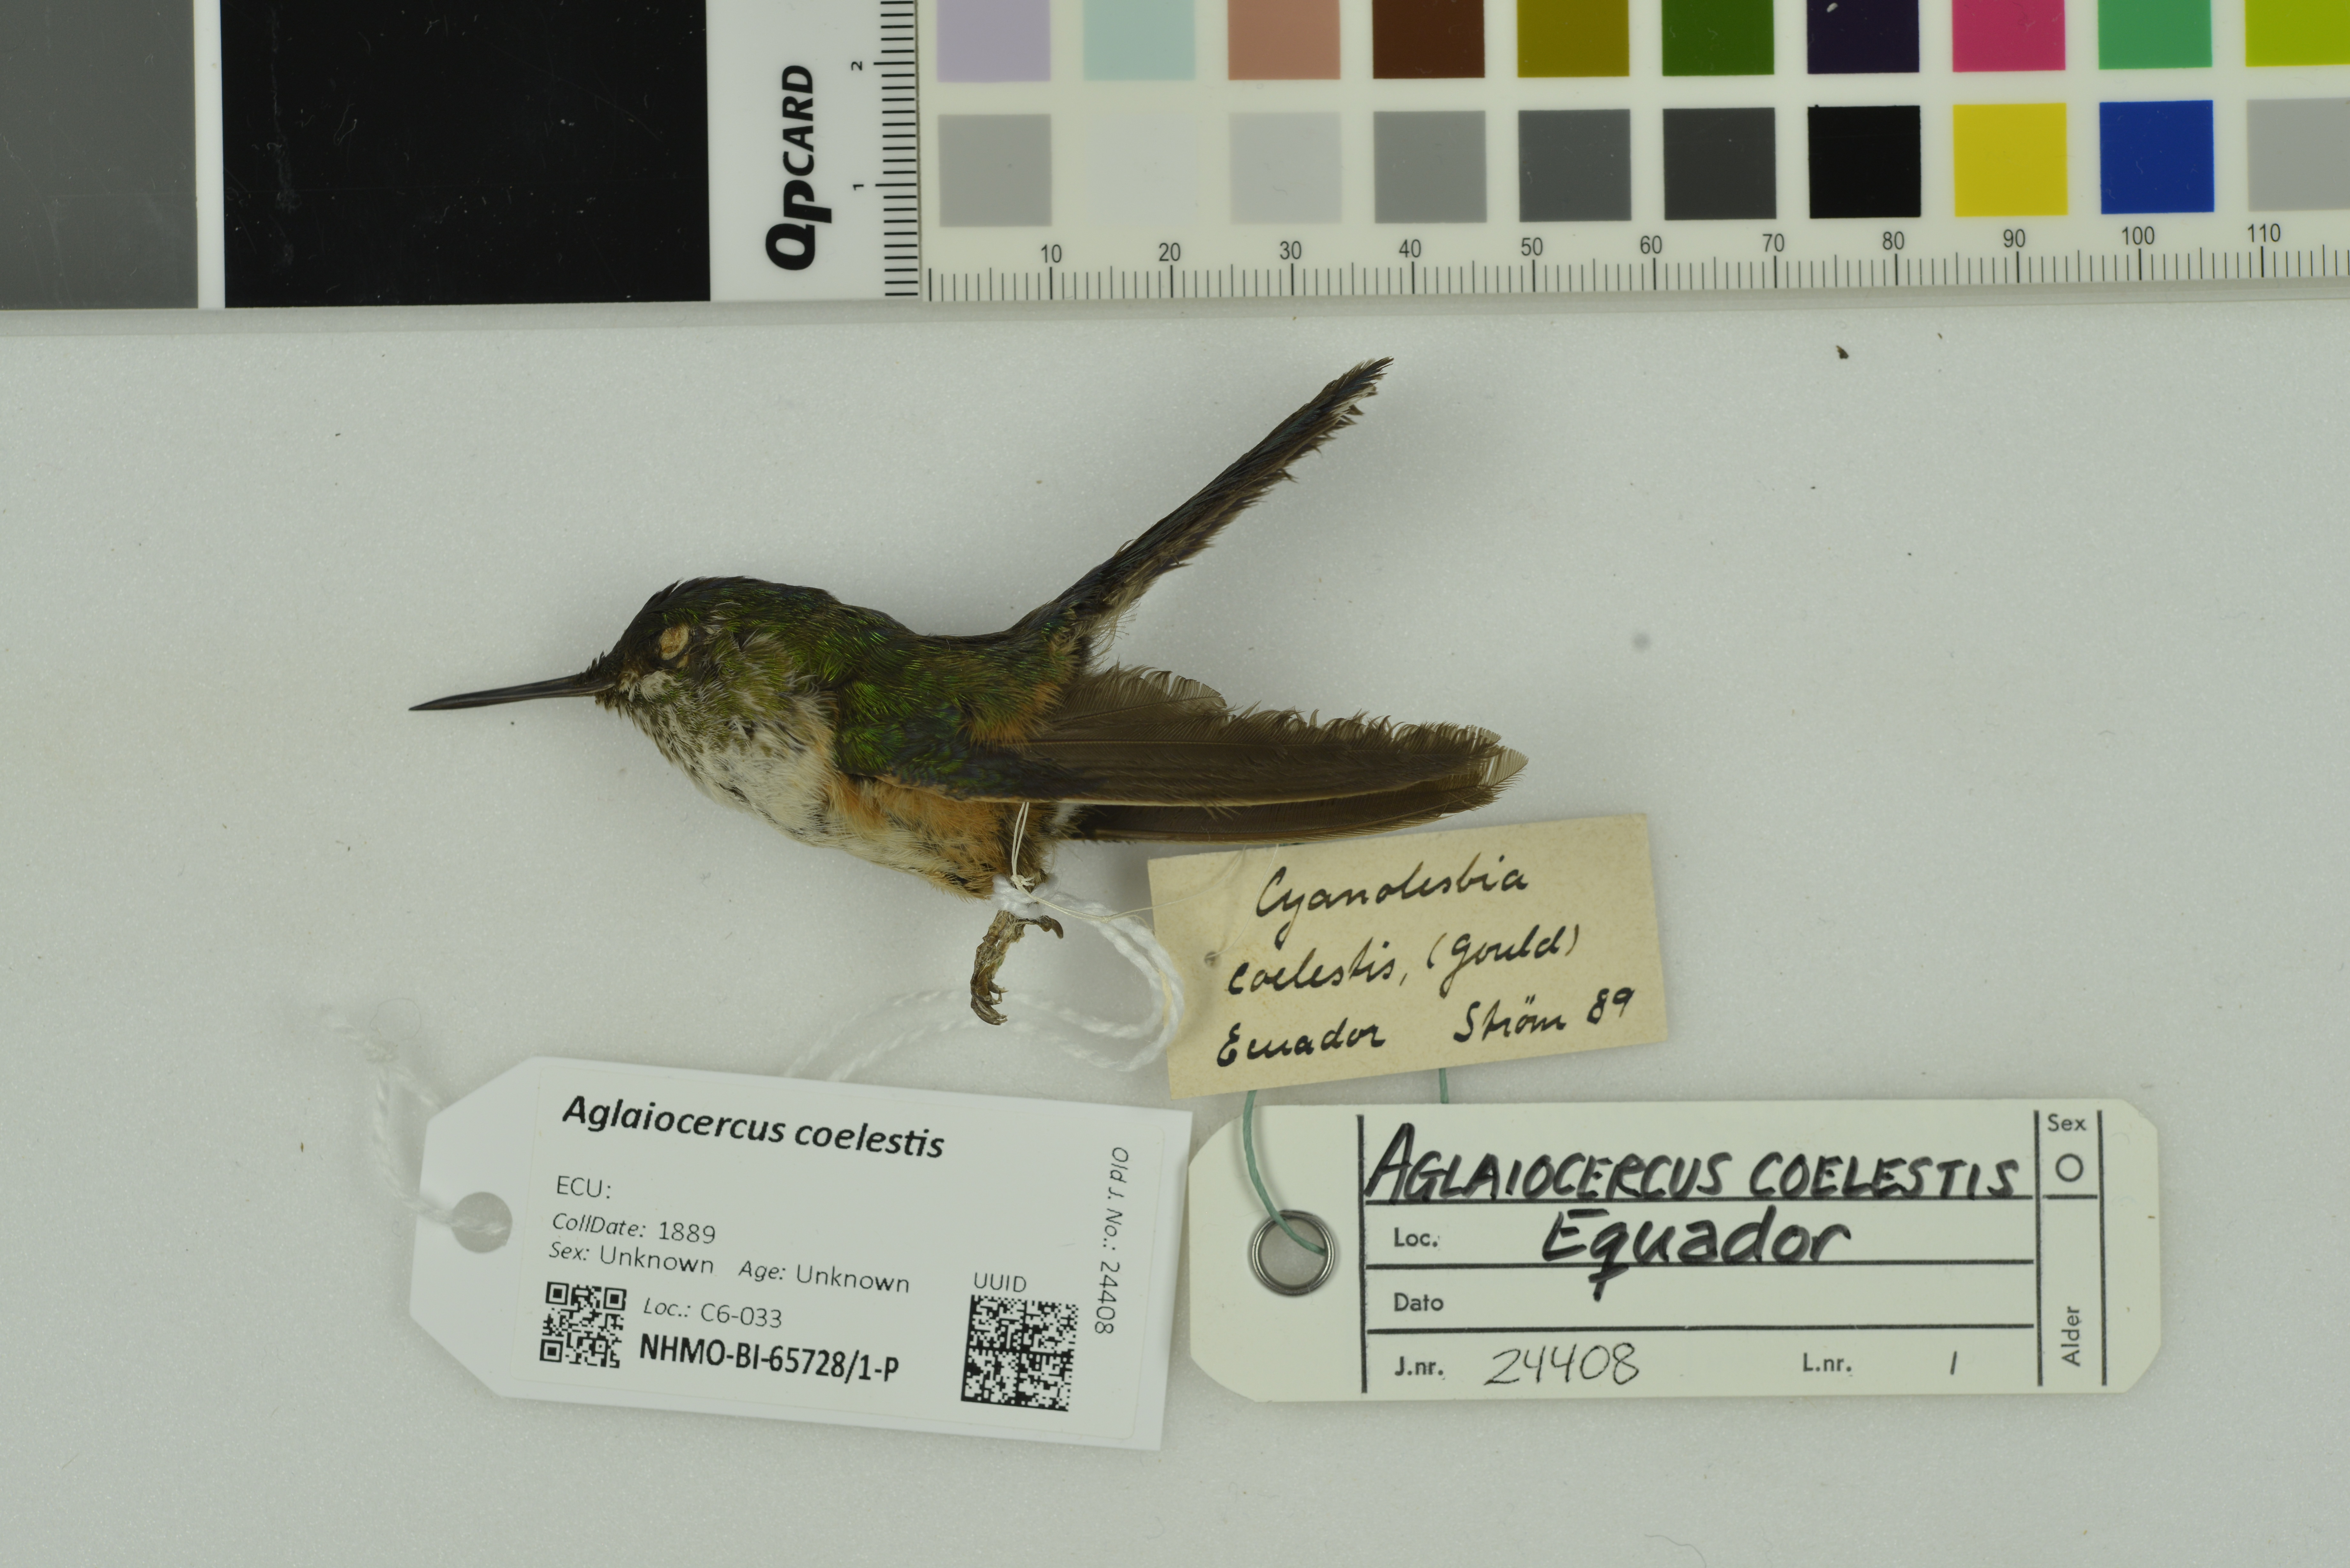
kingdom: Animalia
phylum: Chordata
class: Aves
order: Apodiformes
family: Trochilidae
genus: Aglaiocercus
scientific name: Aglaiocercus coelestis
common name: Violet-tailed sylph
